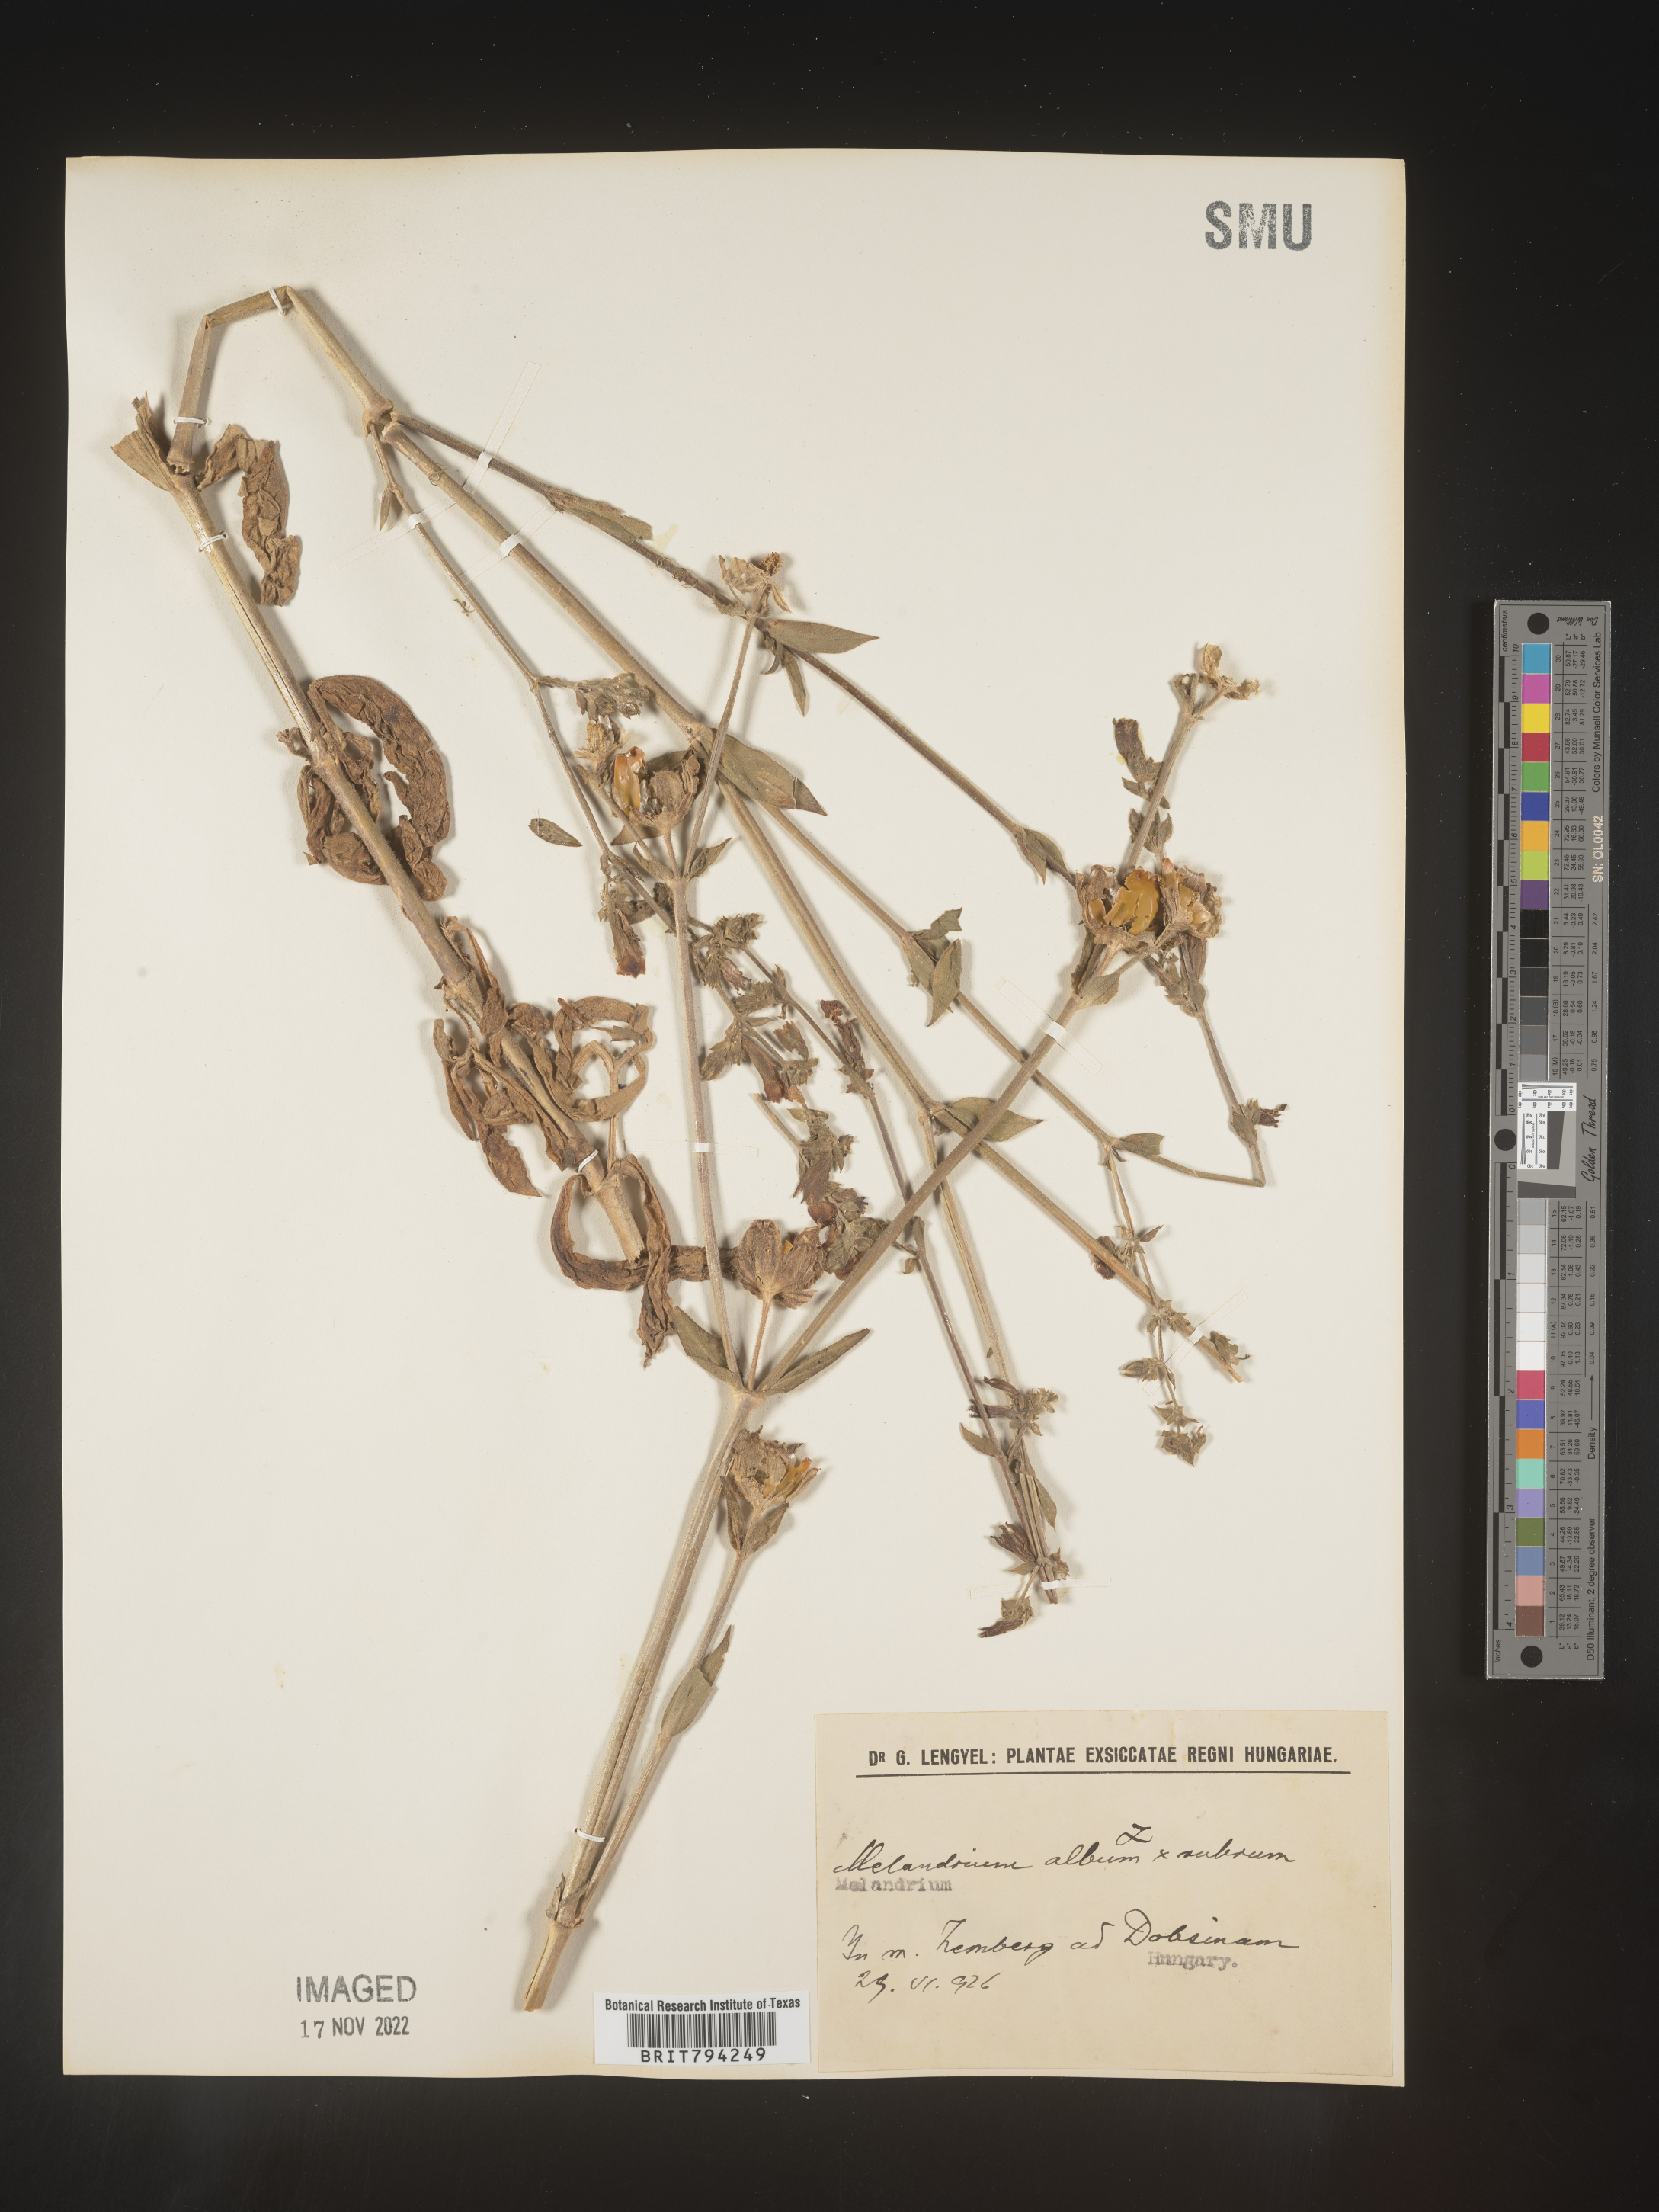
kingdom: Plantae
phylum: Tracheophyta
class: Magnoliopsida
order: Caryophyllales
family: Caryophyllaceae
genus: Silene
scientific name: Silene latifolia
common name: White campion
